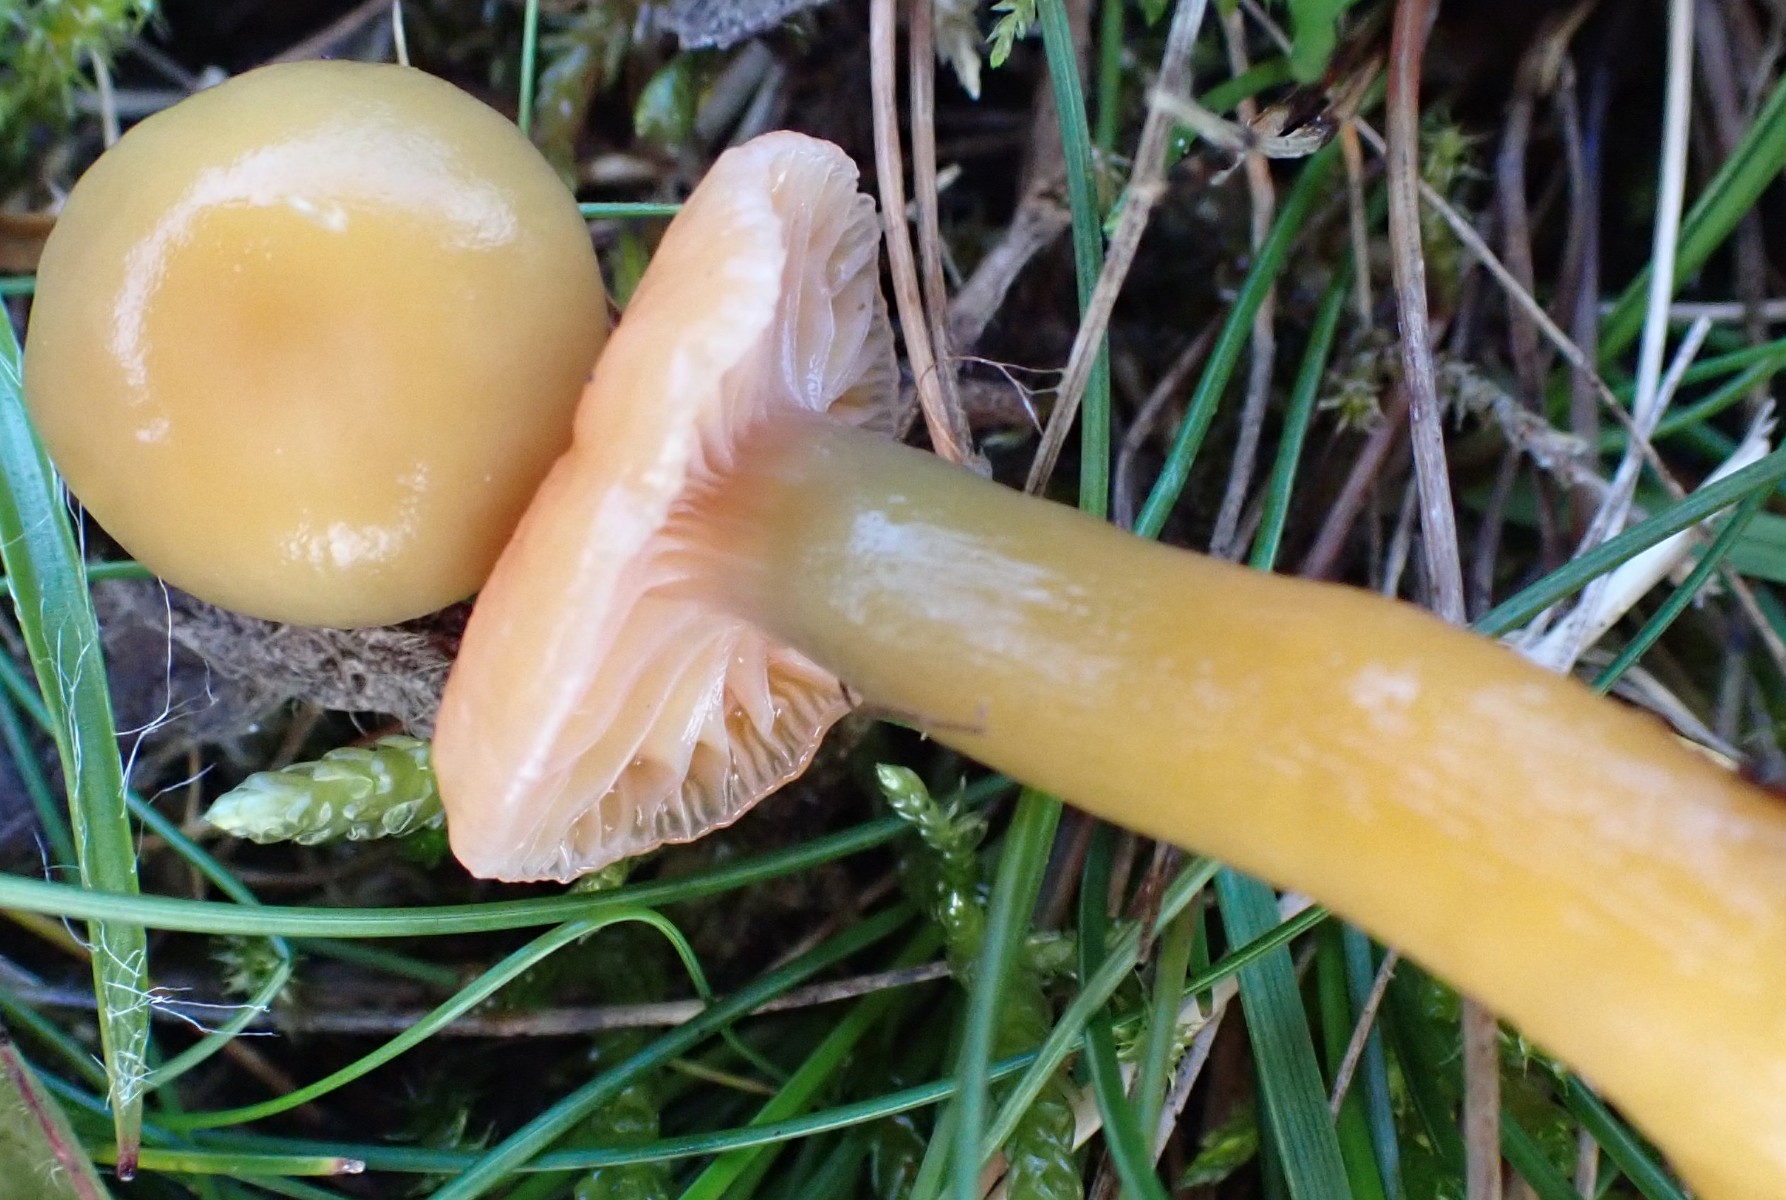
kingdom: Fungi
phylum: Basidiomycota
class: Agaricomycetes
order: Agaricales
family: Hygrophoraceae
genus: Gliophorus
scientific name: Gliophorus laetus
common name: brusk-vokshat
